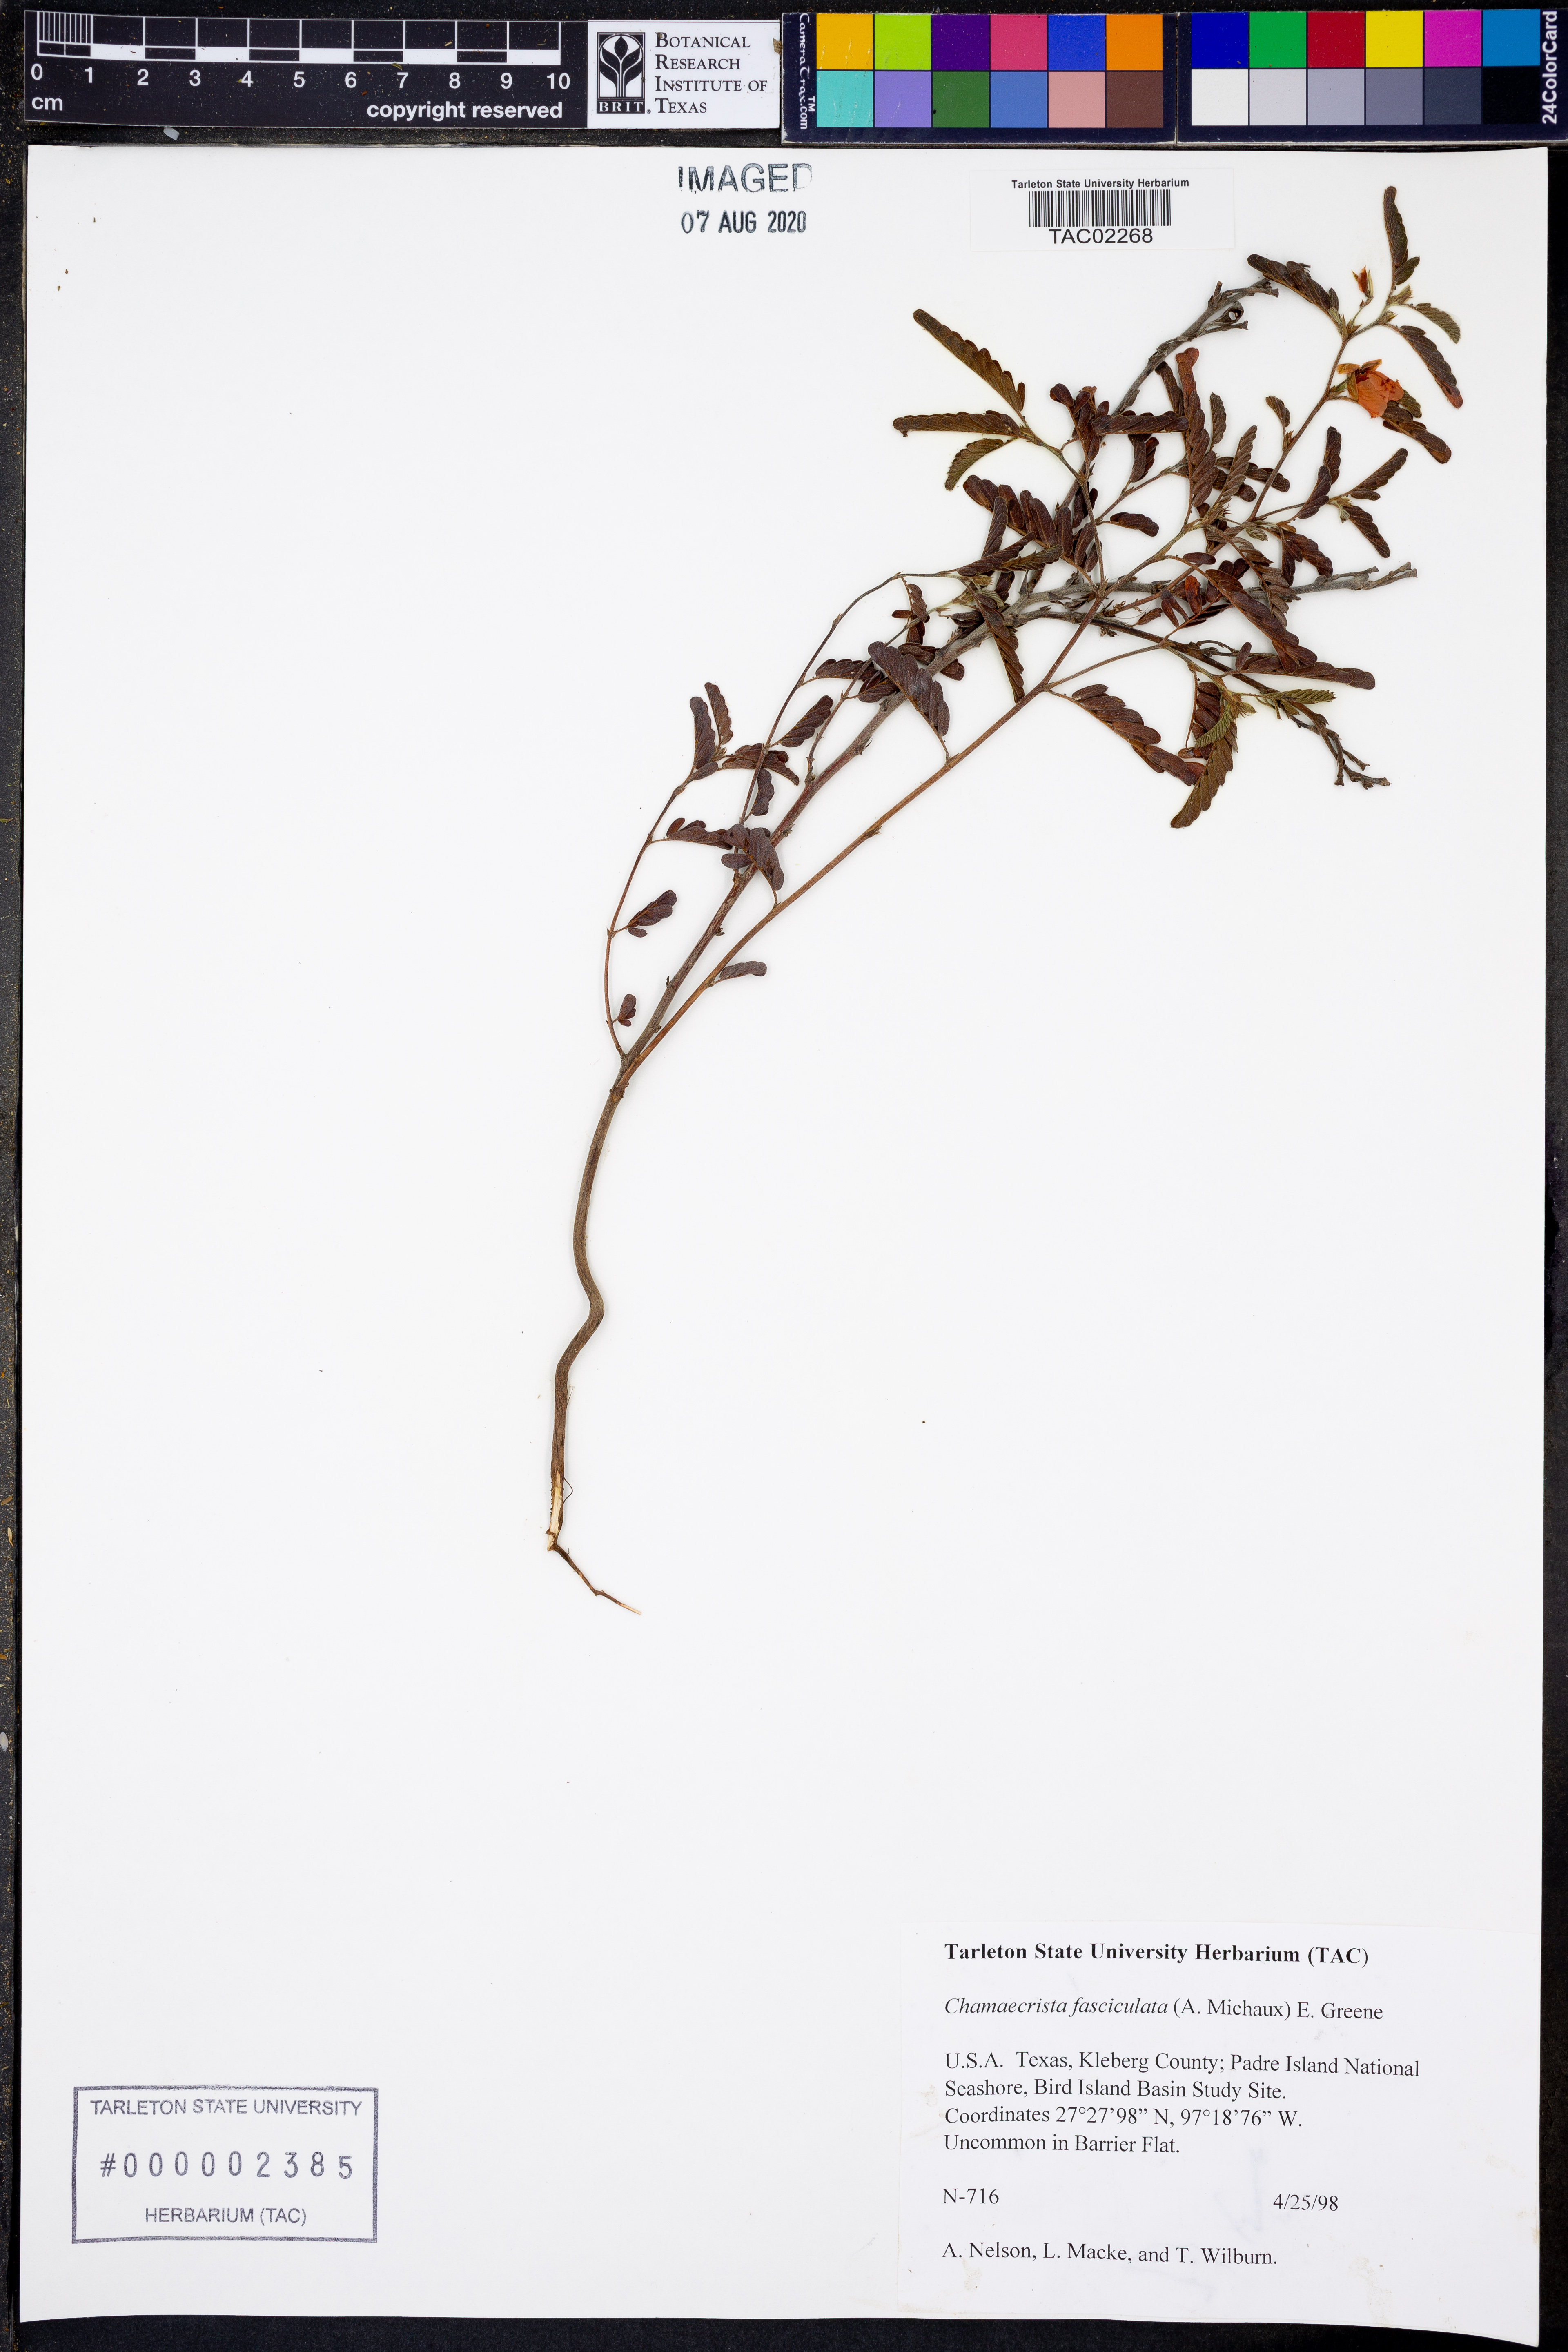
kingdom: Plantae
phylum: Tracheophyta
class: Magnoliopsida
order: Fabales
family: Fabaceae
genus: Chamaecrista
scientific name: Chamaecrista fasciculata
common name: Golden cassia
